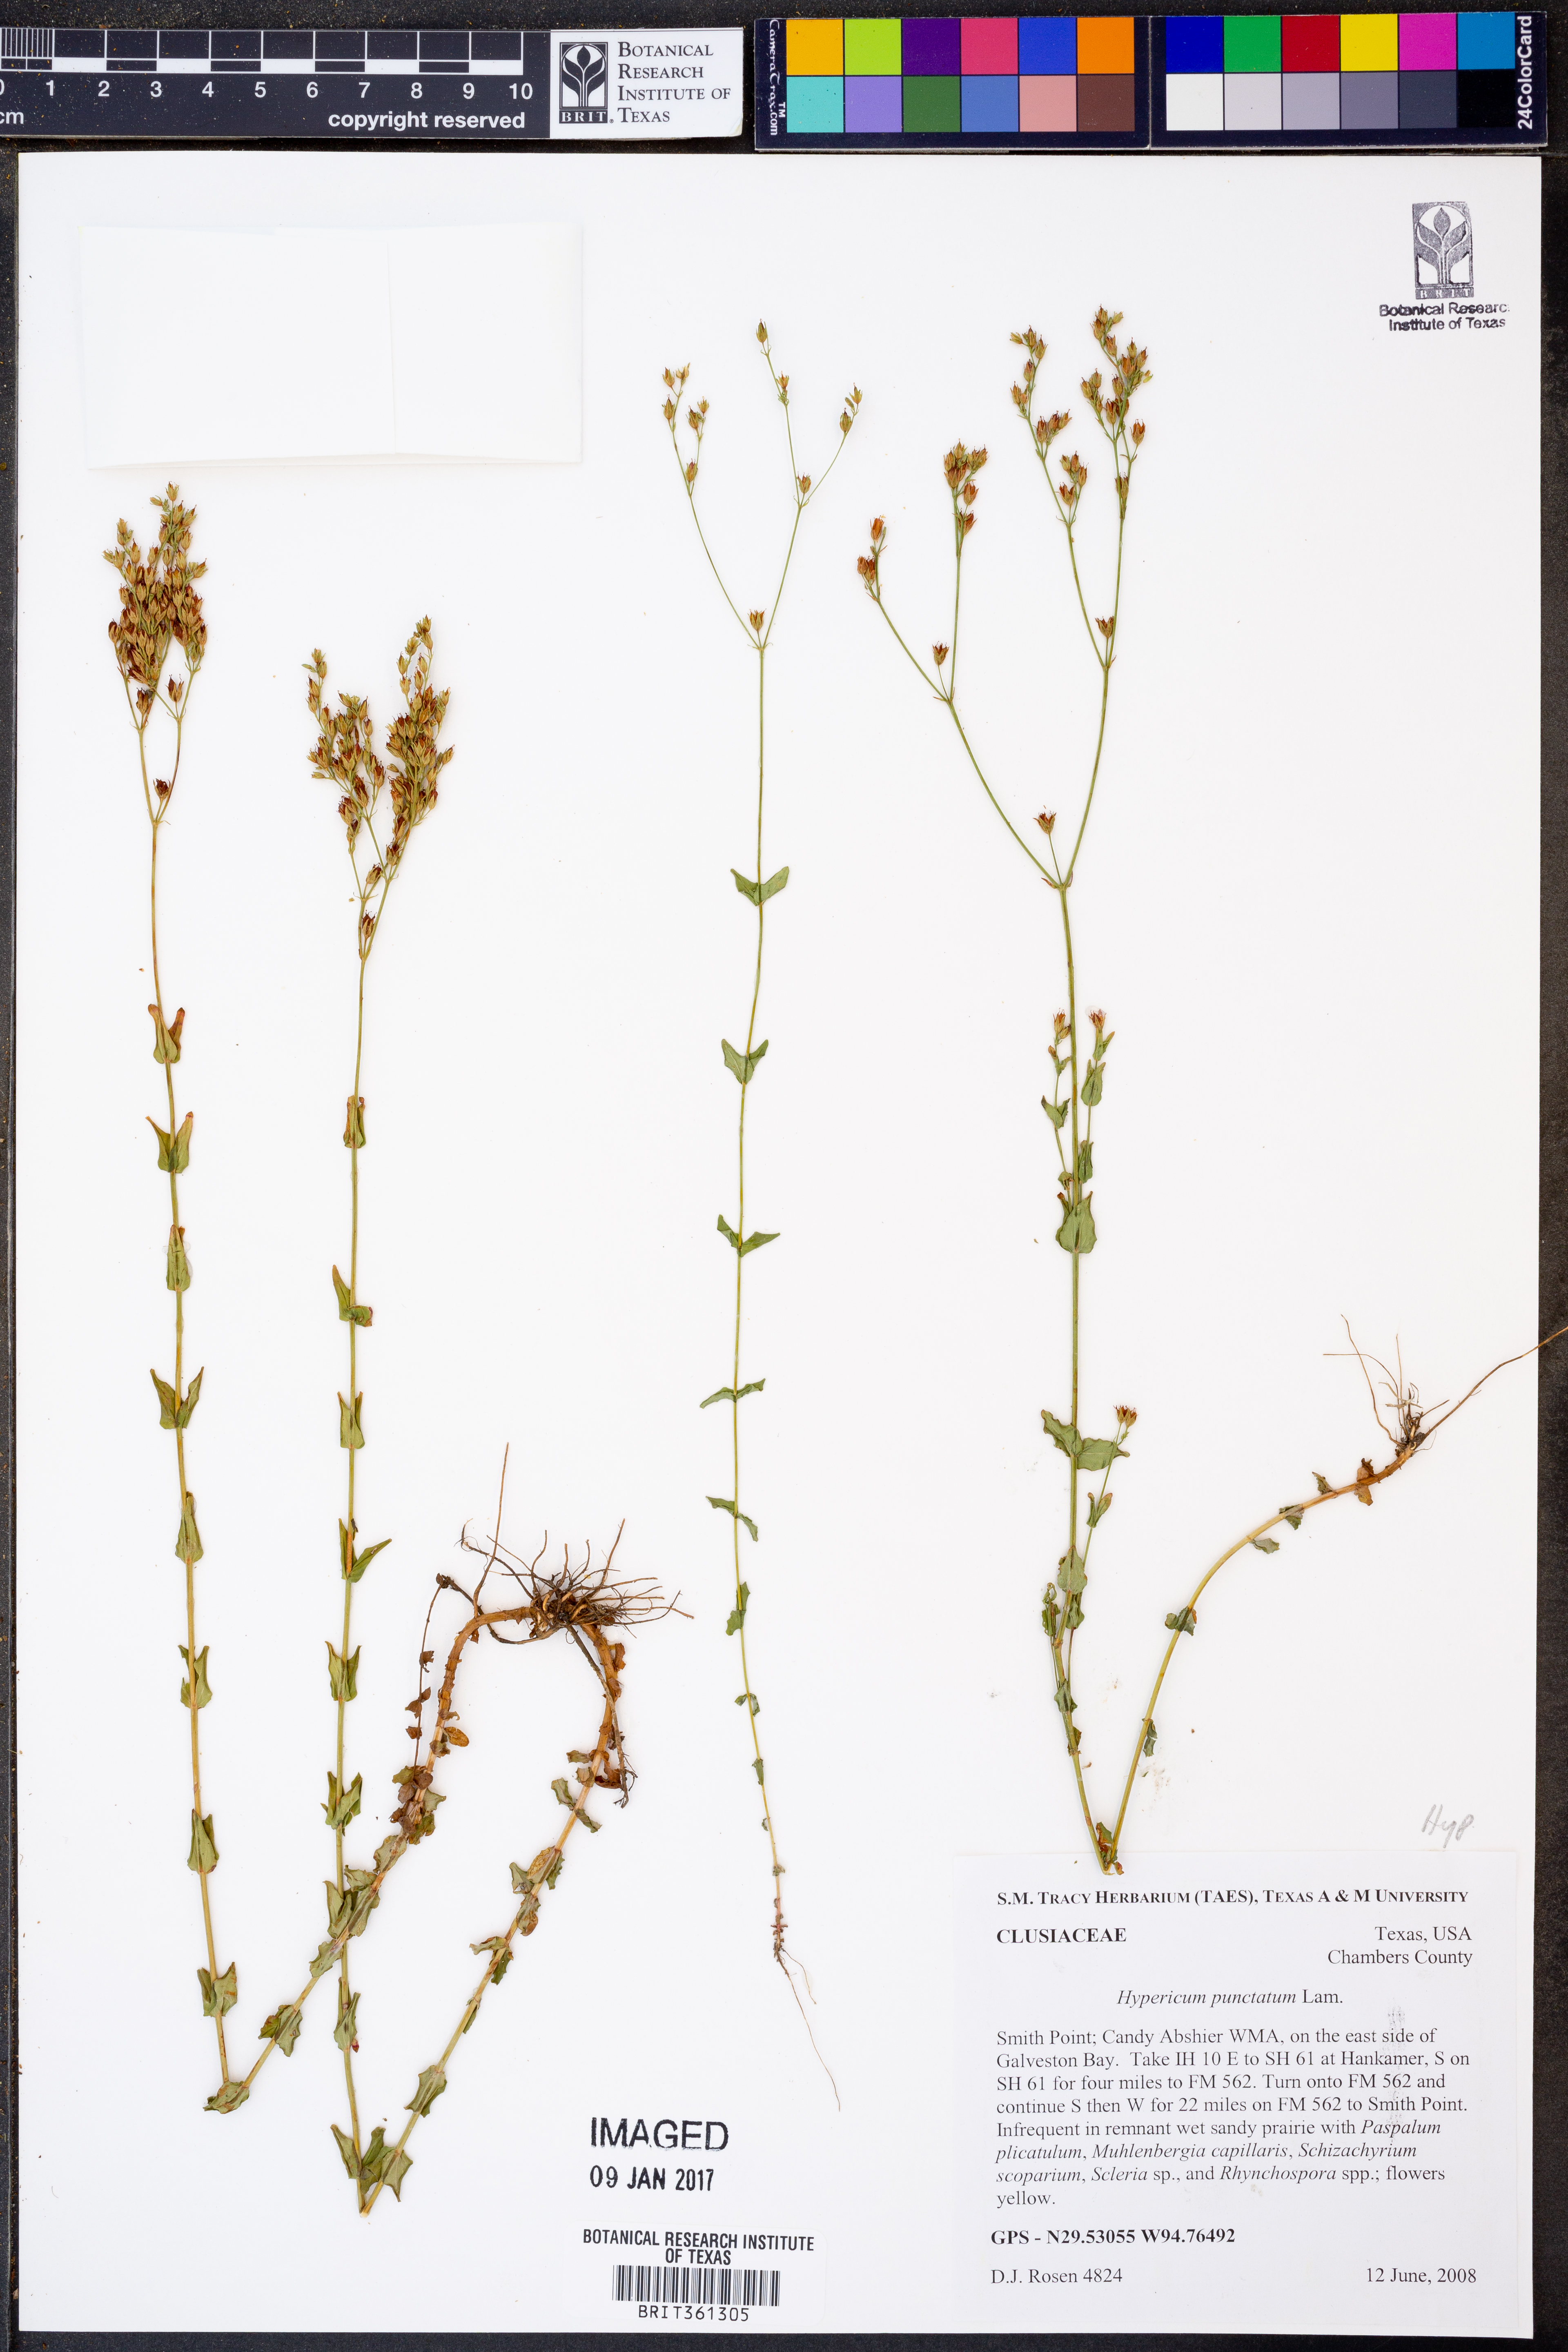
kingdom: Plantae
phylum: Tracheophyta
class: Magnoliopsida
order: Malpighiales
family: Hypericaceae
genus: Hypericum
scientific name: Hypericum punctatum
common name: Spotted st. john's-wort
